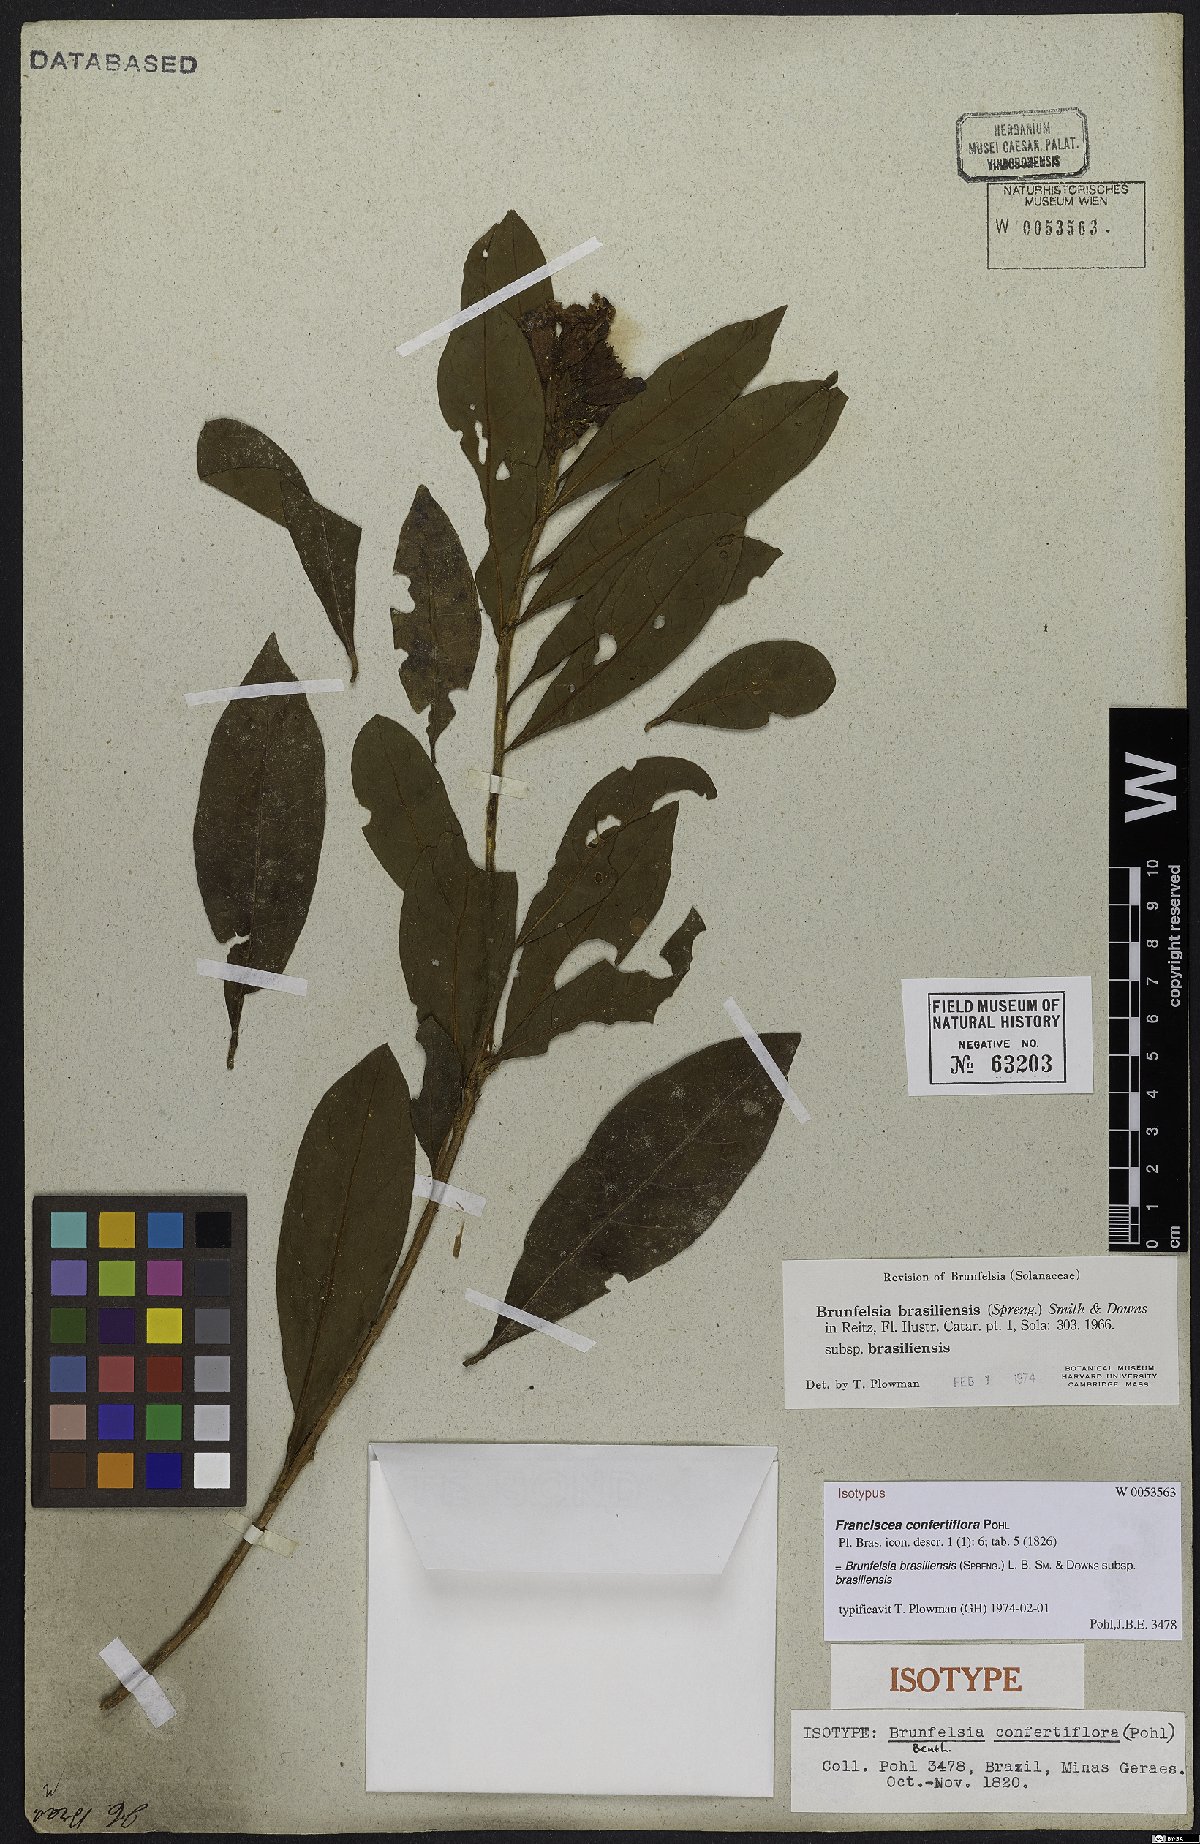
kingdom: Plantae
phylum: Tracheophyta
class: Magnoliopsida
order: Solanales
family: Solanaceae
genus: Brunfelsia
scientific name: Brunfelsia brasiliensis
